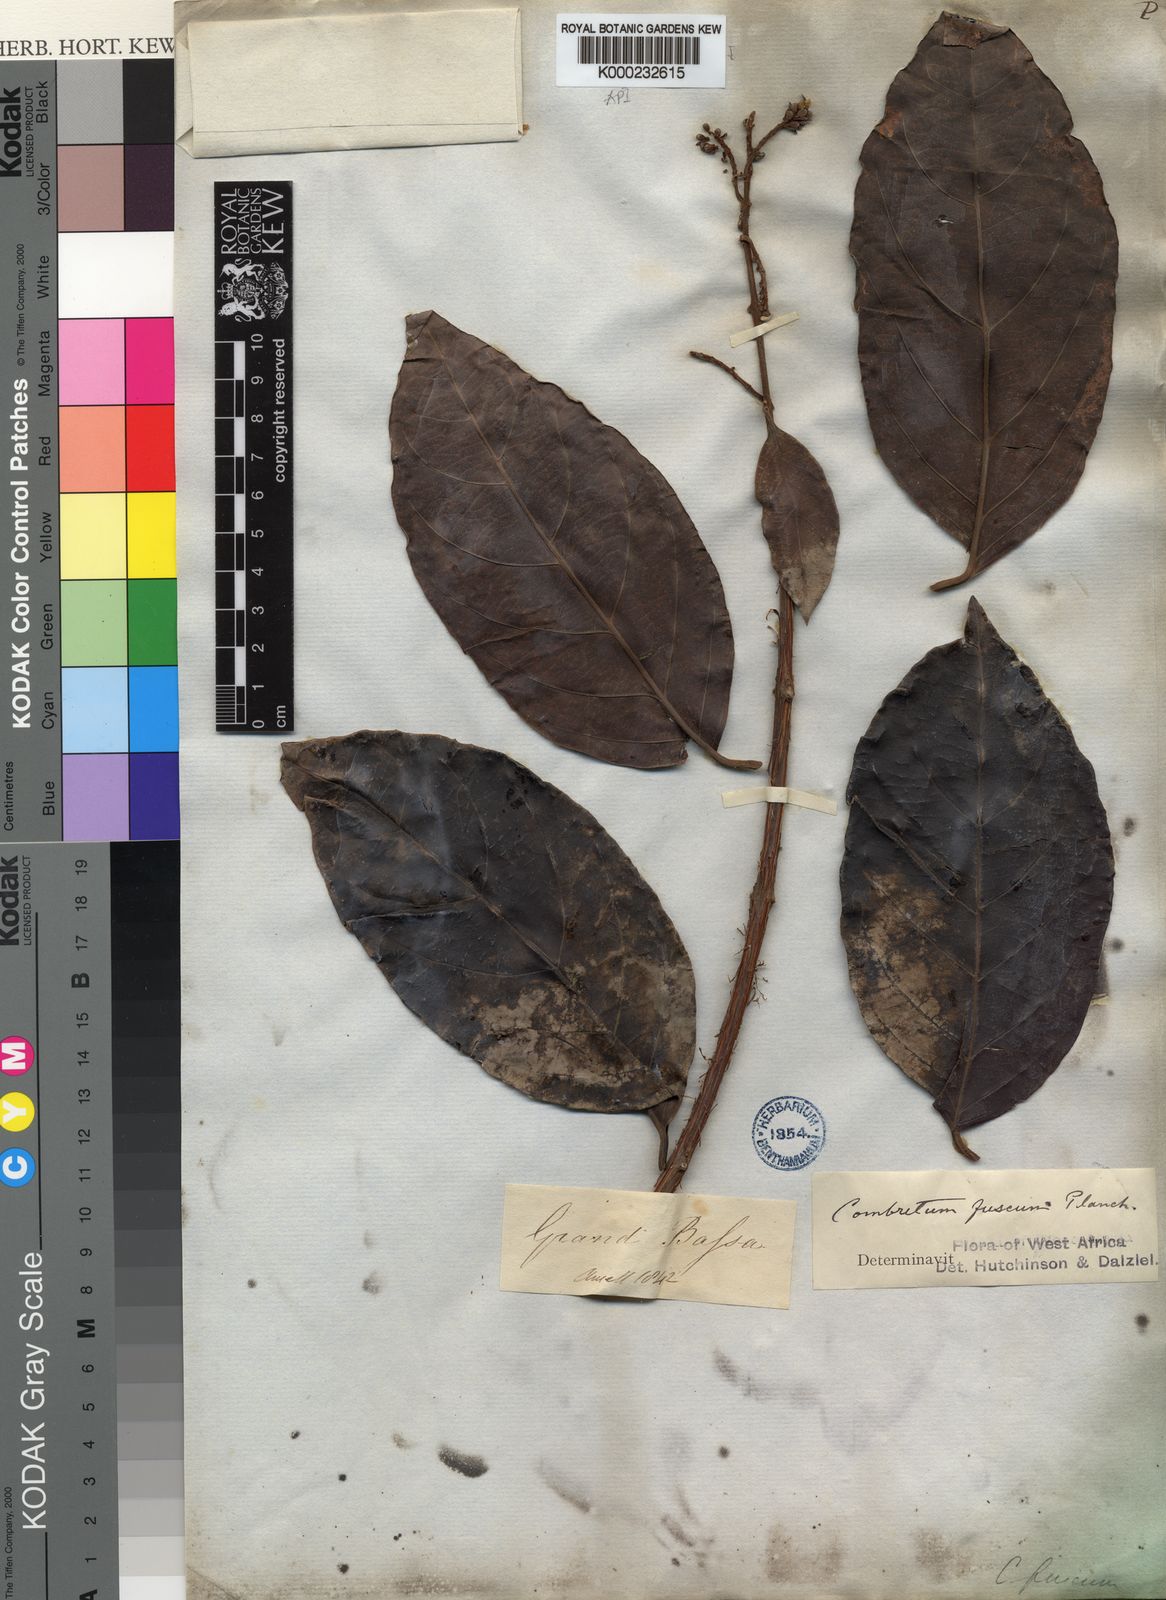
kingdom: Plantae
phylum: Tracheophyta
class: Magnoliopsida
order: Myrtales
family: Combretaceae
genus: Combretum
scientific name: Combretum fuscum
